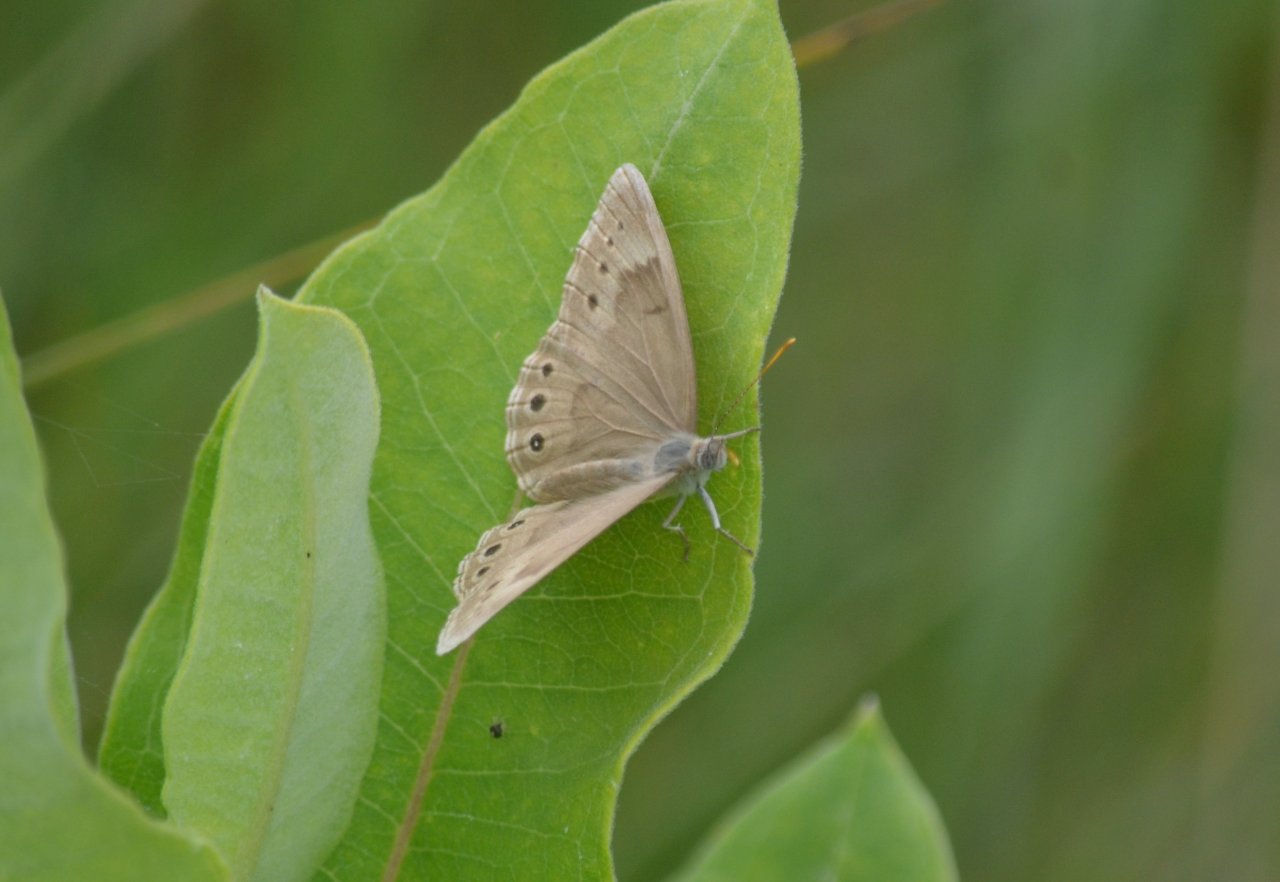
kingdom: Animalia
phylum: Arthropoda
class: Insecta
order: Lepidoptera
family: Nymphalidae
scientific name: Nymphalidae
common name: Brushfoots
